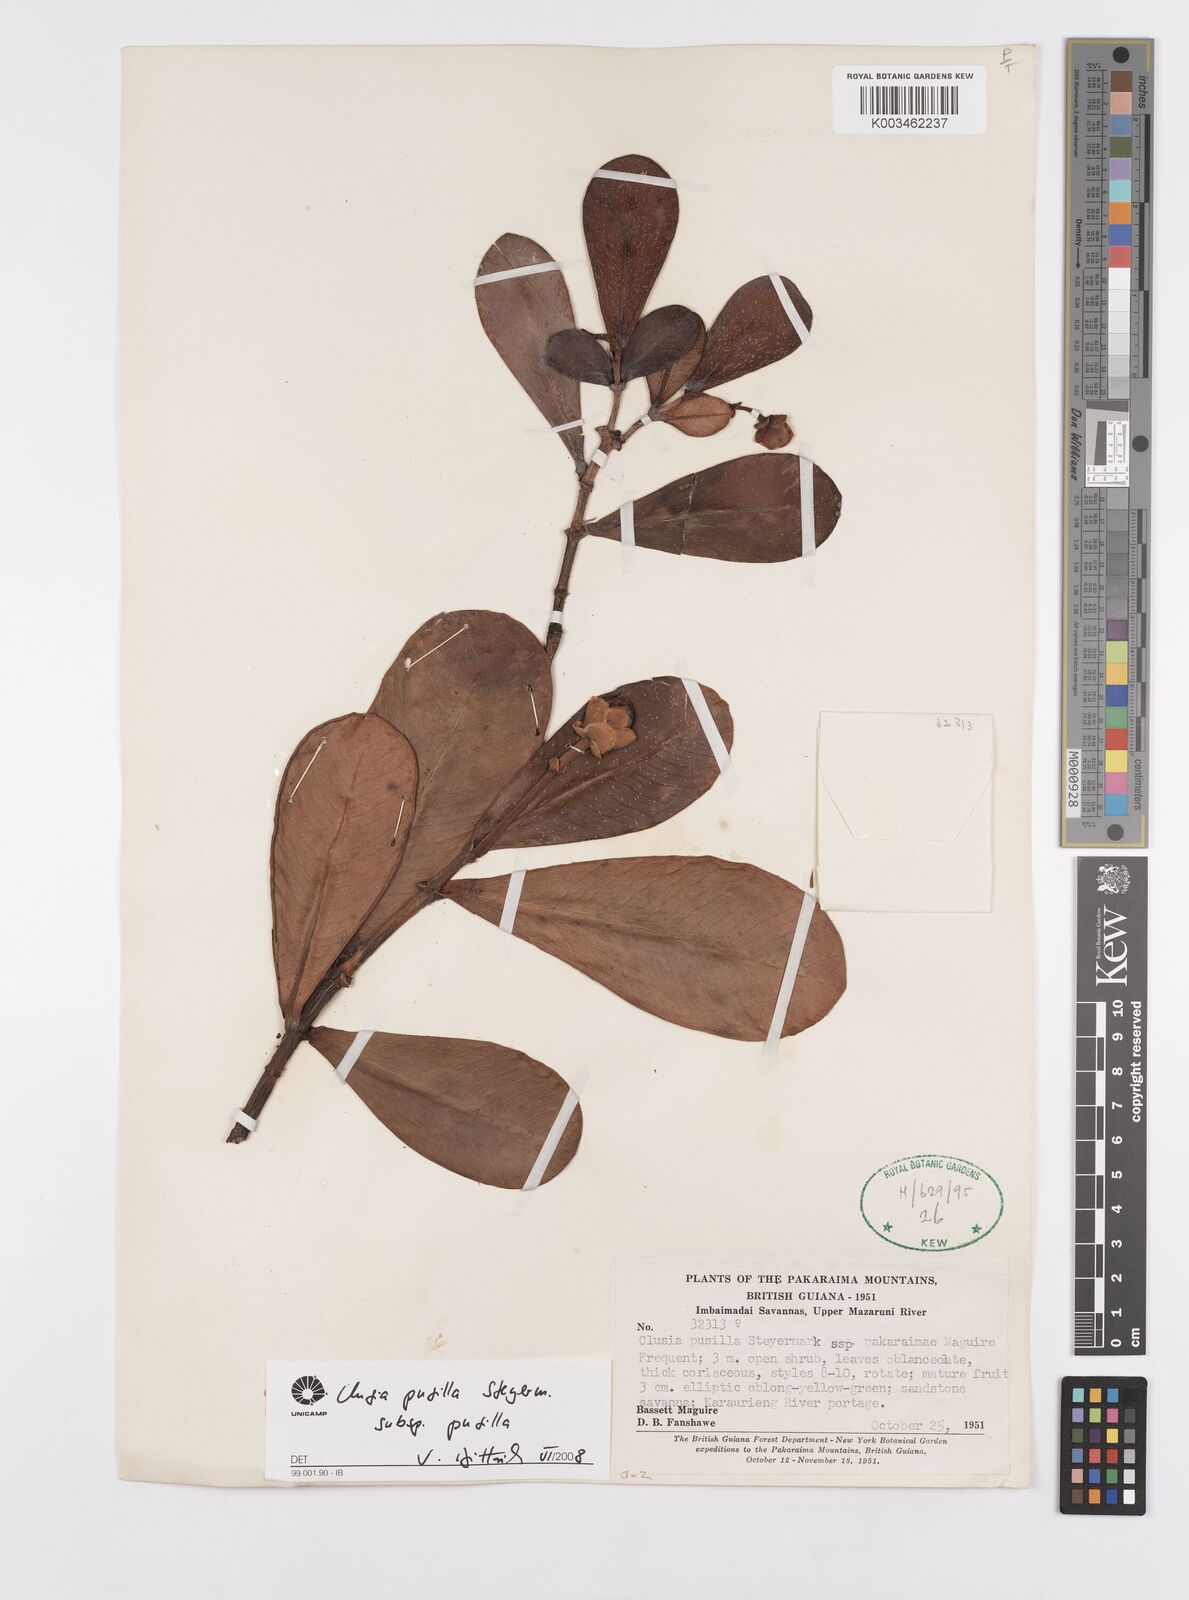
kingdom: Plantae
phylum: Tracheophyta
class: Magnoliopsida
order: Malpighiales
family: Clusiaceae
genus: Clusia
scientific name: Clusia pusilla
